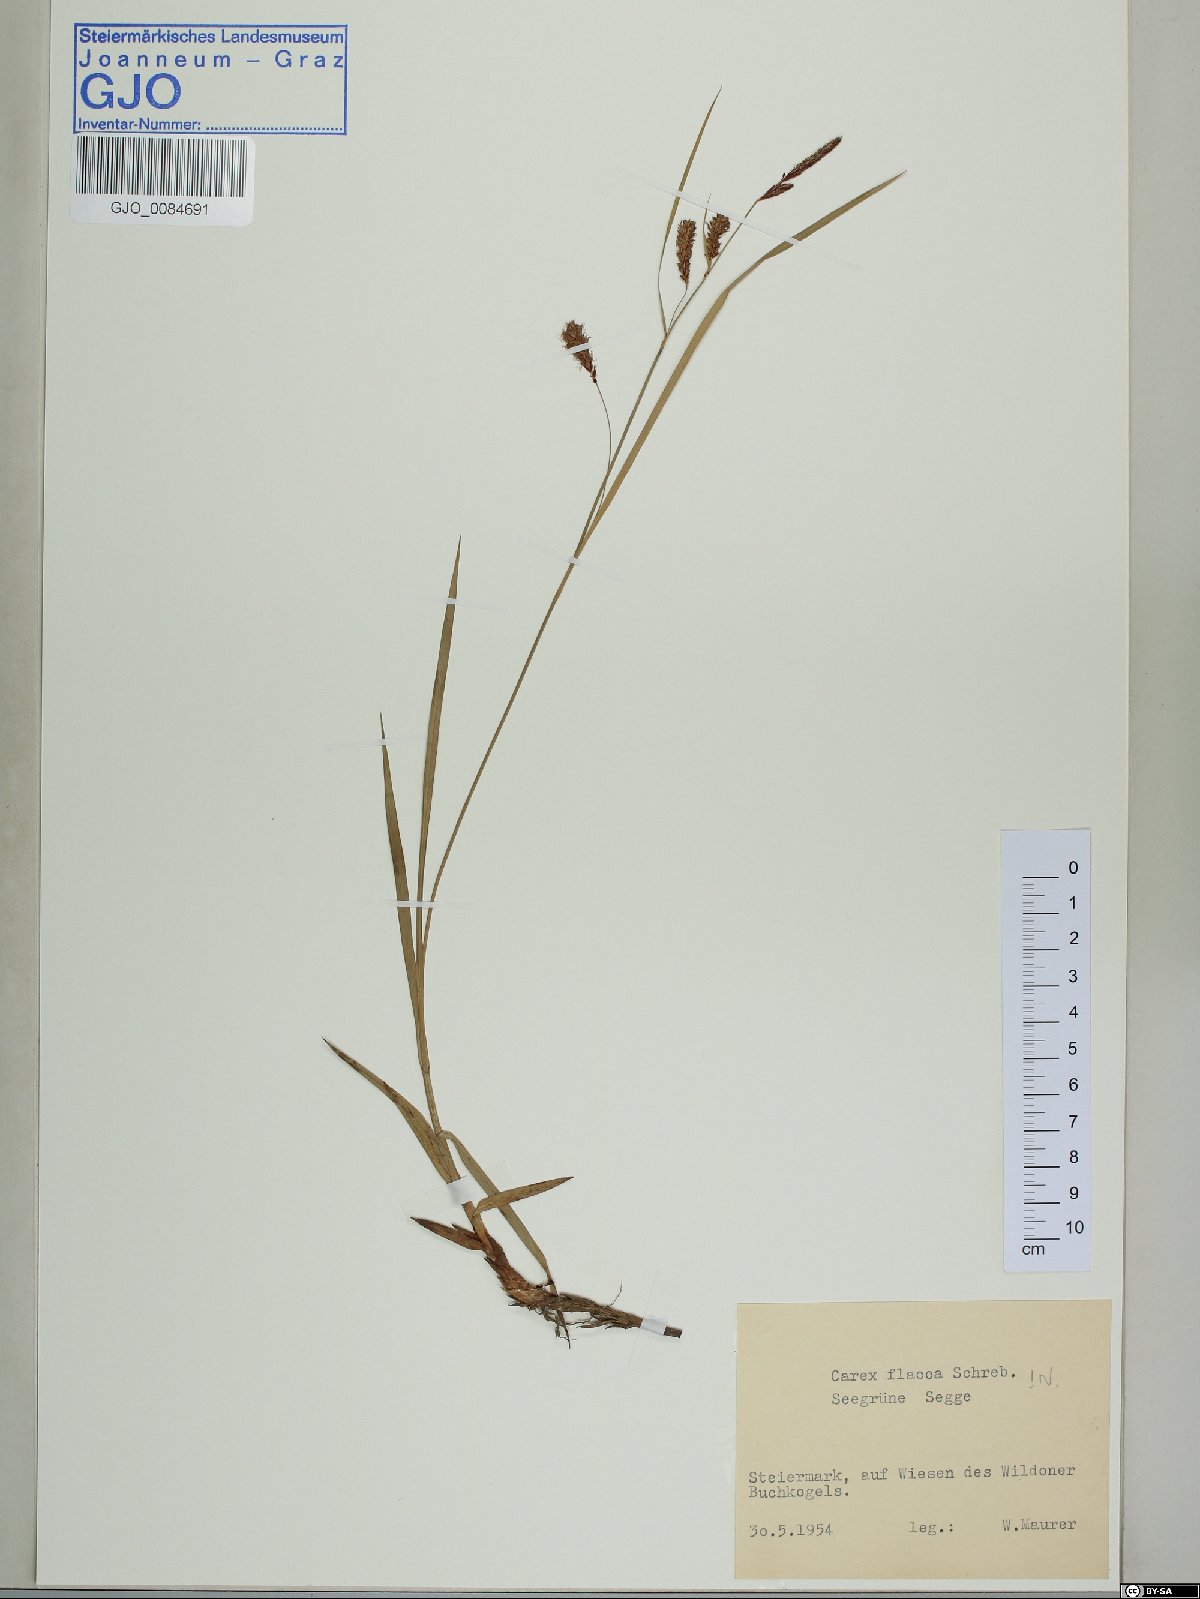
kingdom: Plantae
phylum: Tracheophyta
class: Liliopsida
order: Poales
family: Cyperaceae
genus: Carex
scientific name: Carex flacca
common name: Glaucous sedge
